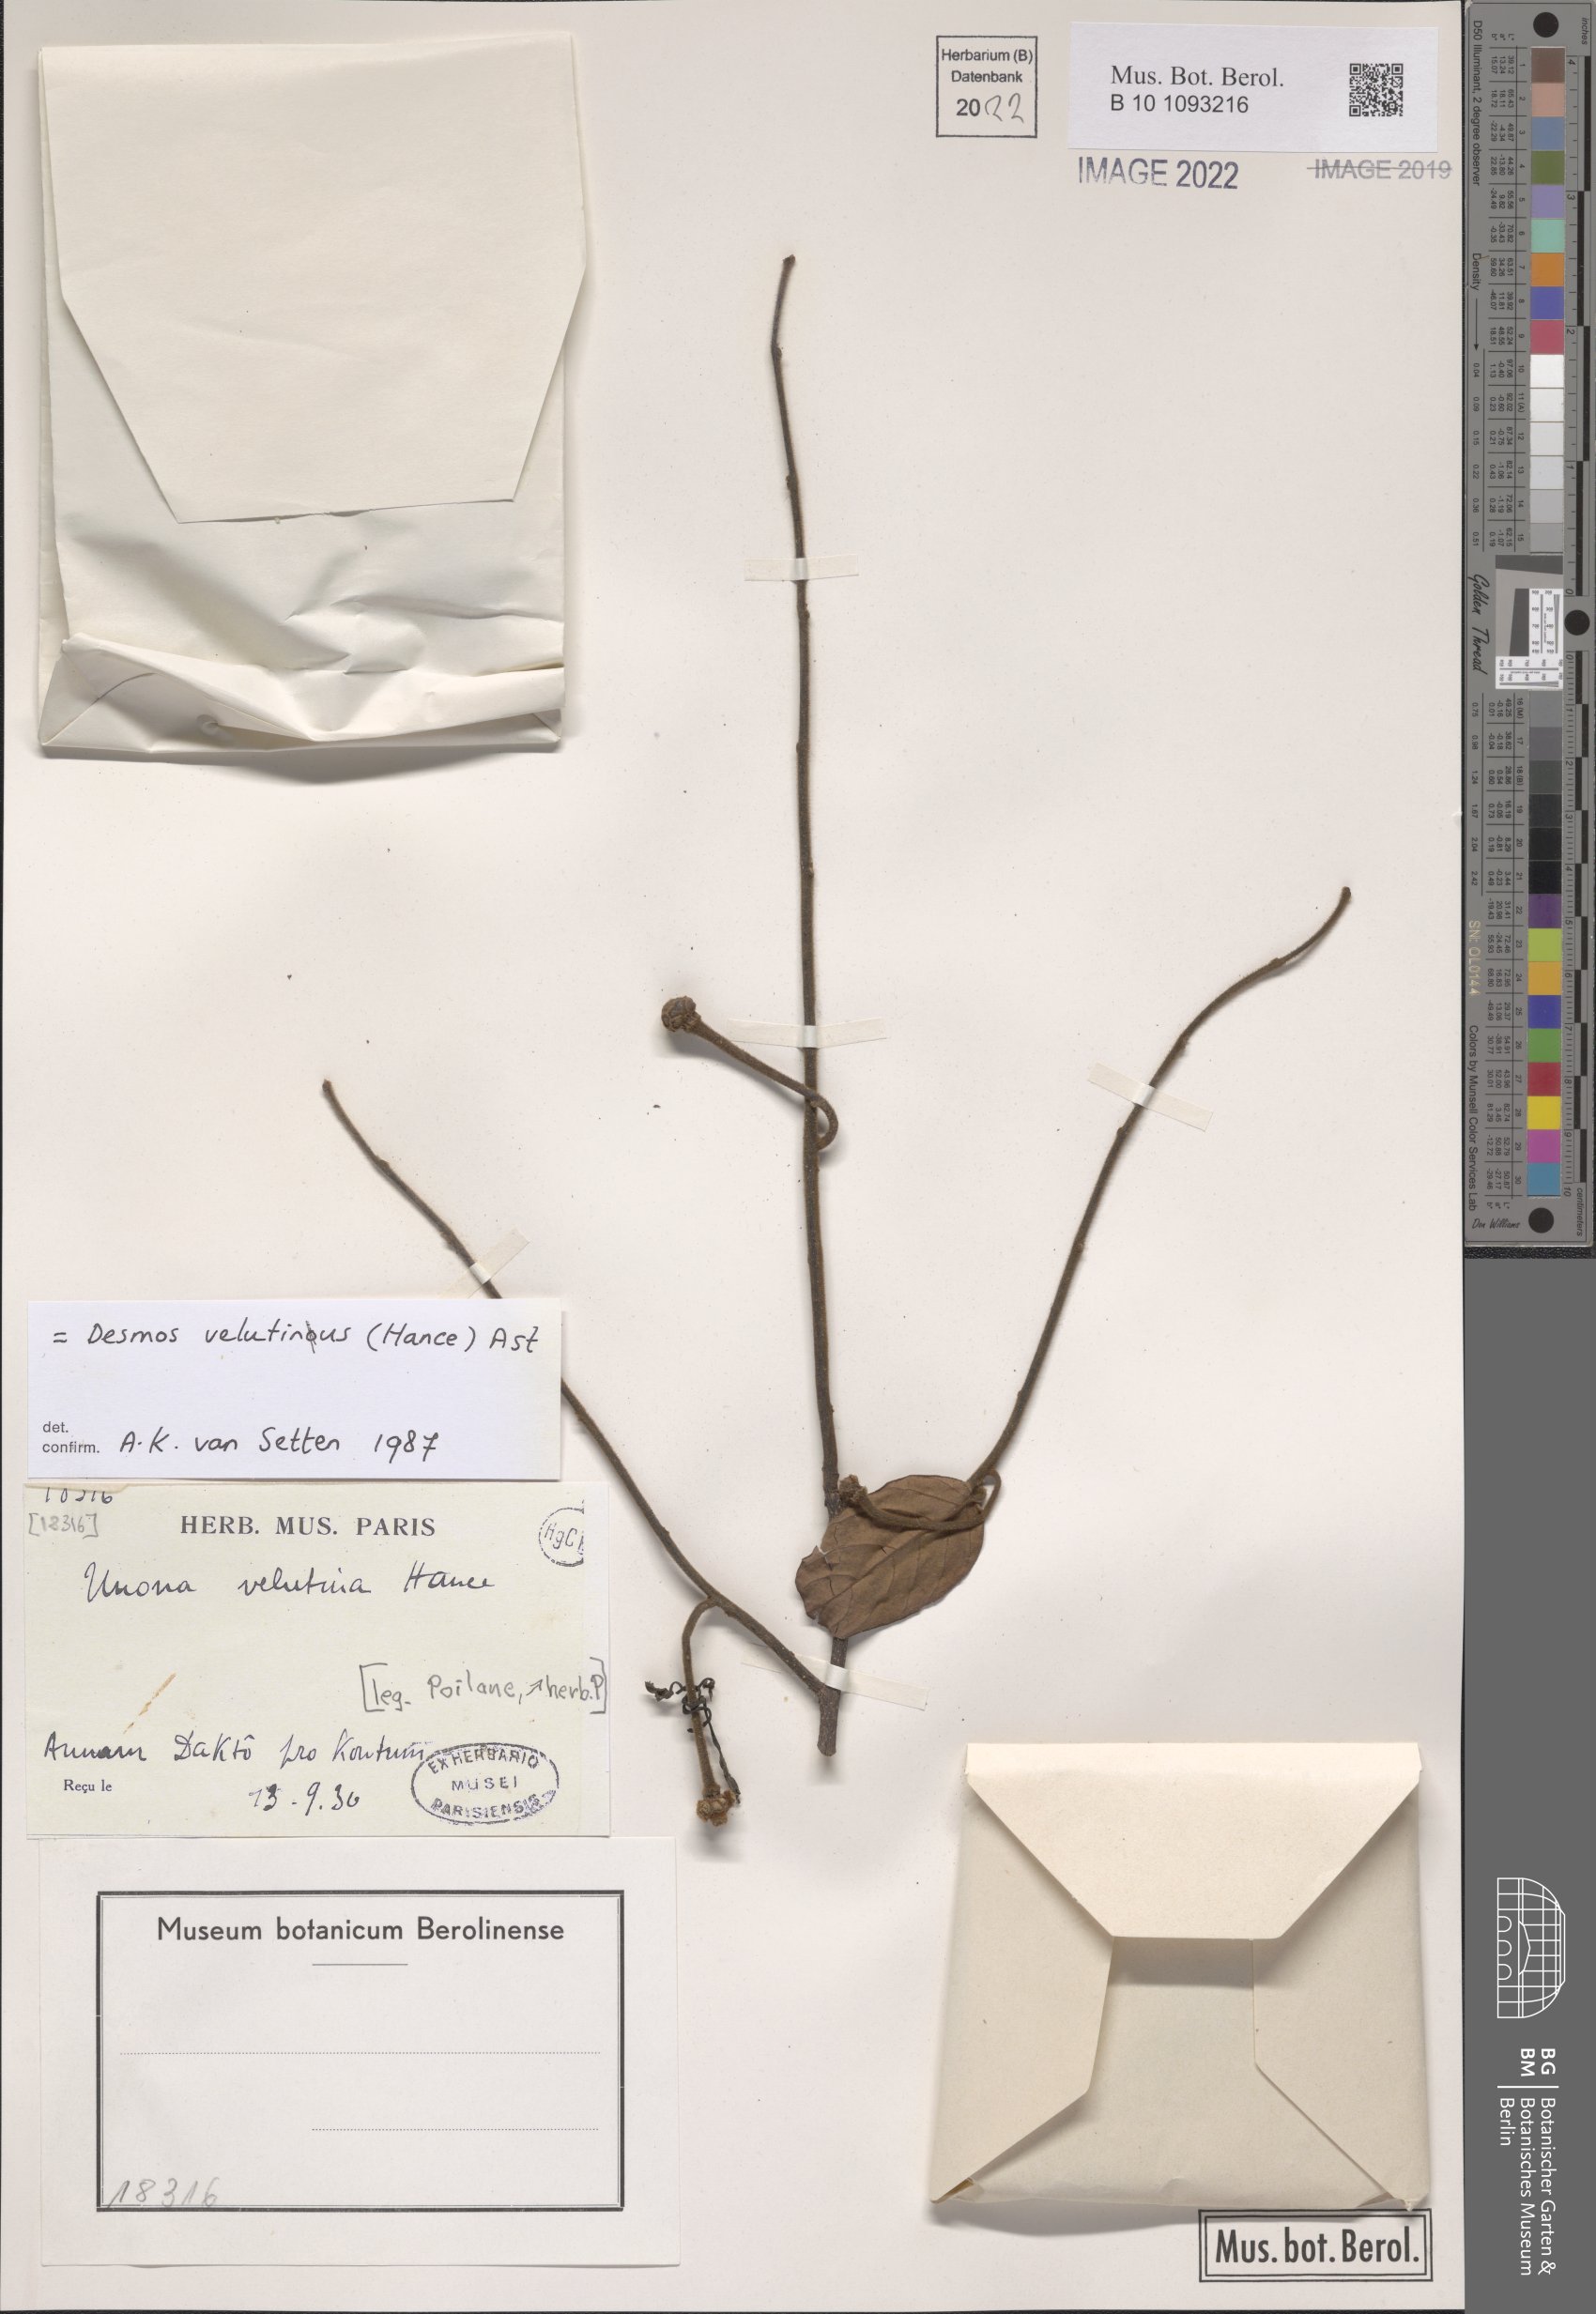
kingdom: Plantae
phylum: Tracheophyta
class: Magnoliopsida
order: Magnoliales
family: Annonaceae
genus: Desmos
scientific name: Desmos cochinchinensis
